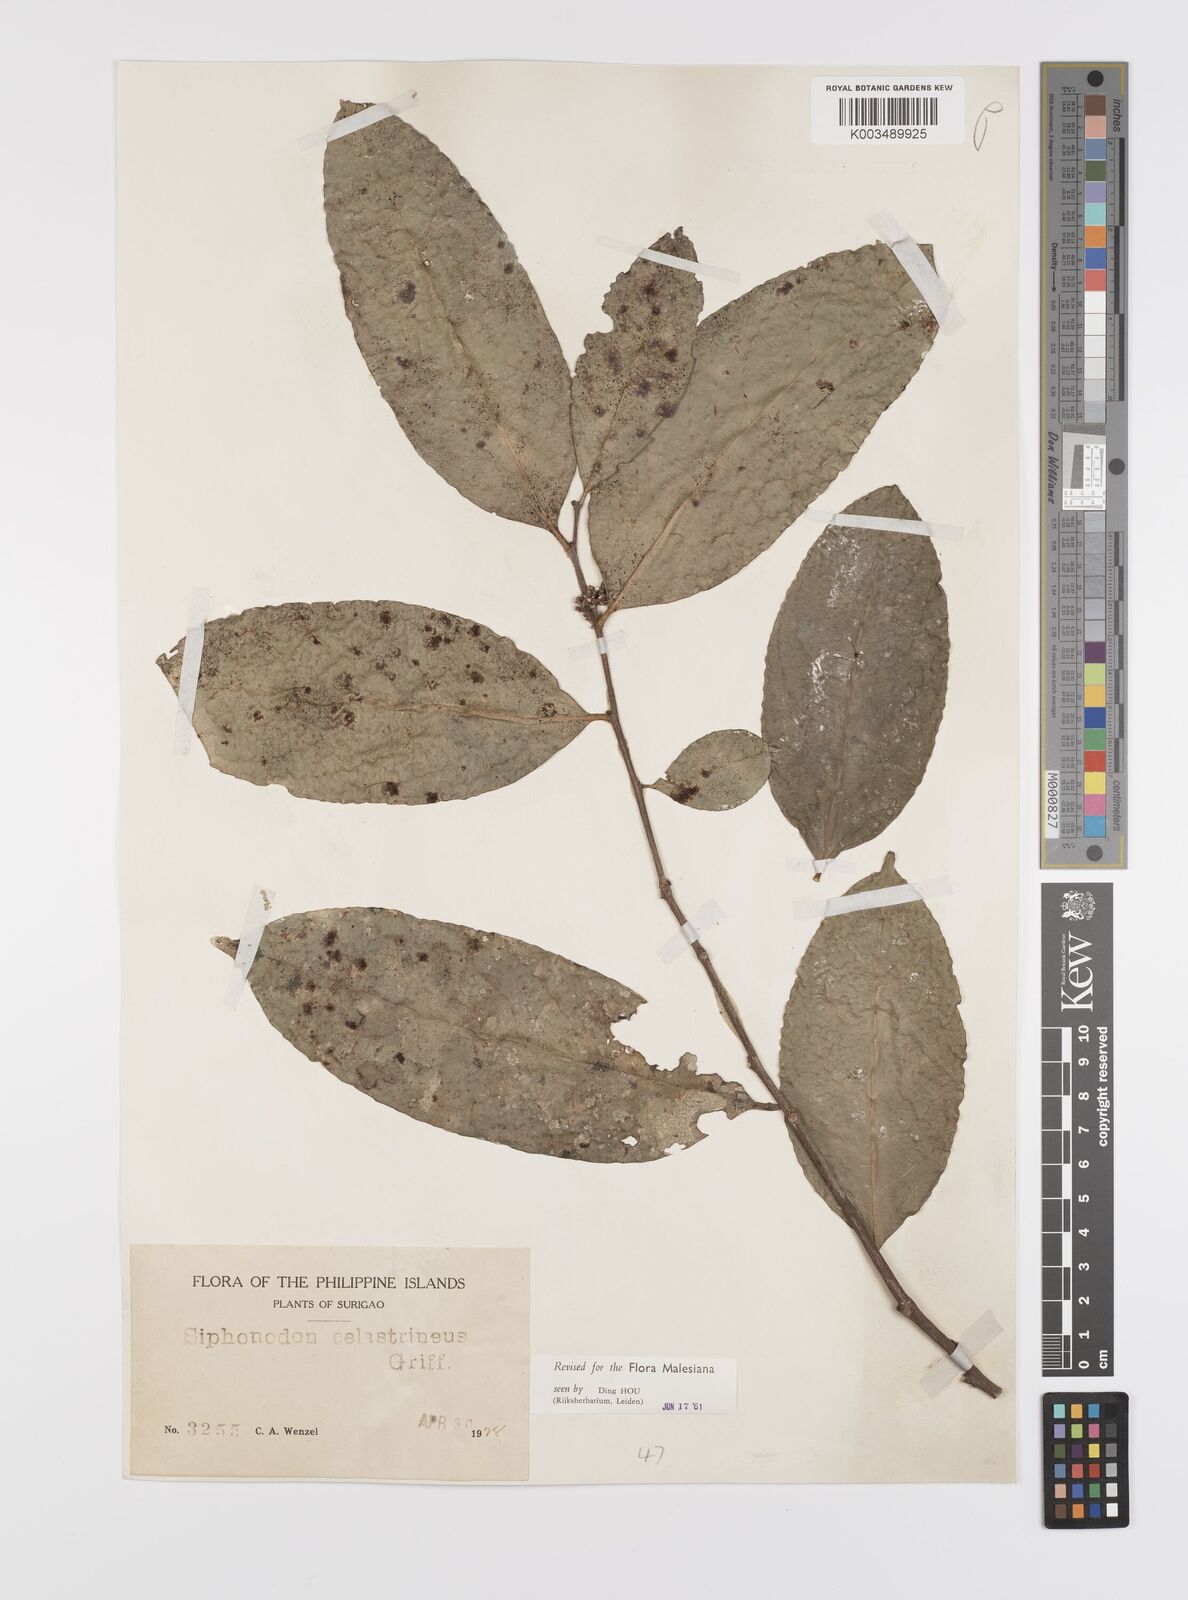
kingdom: Plantae
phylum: Tracheophyta
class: Magnoliopsida
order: Celastrales
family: Celastraceae
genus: Siphonodon
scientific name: Siphonodon celastrineus
